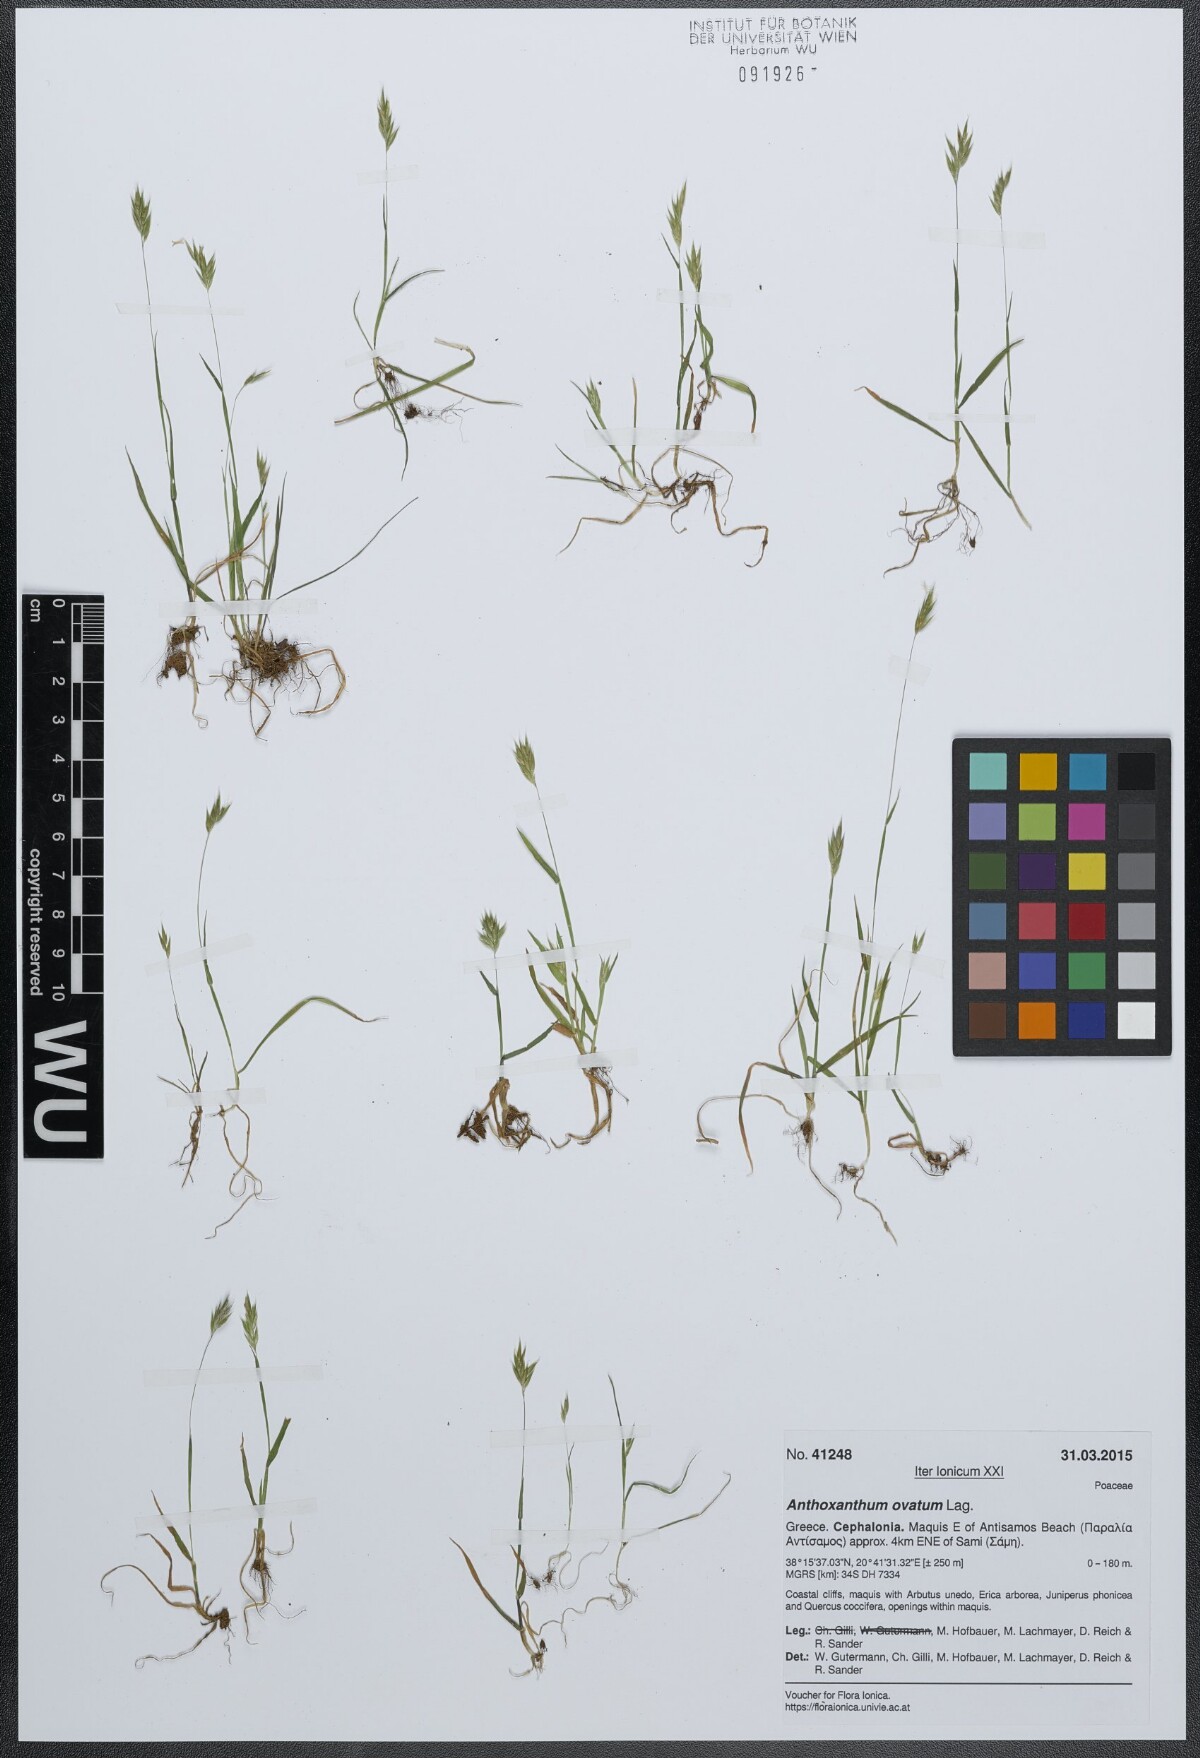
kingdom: Plantae
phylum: Tracheophyta
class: Liliopsida
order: Poales
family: Poaceae
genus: Anthoxanthum
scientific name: Anthoxanthum ovatum
